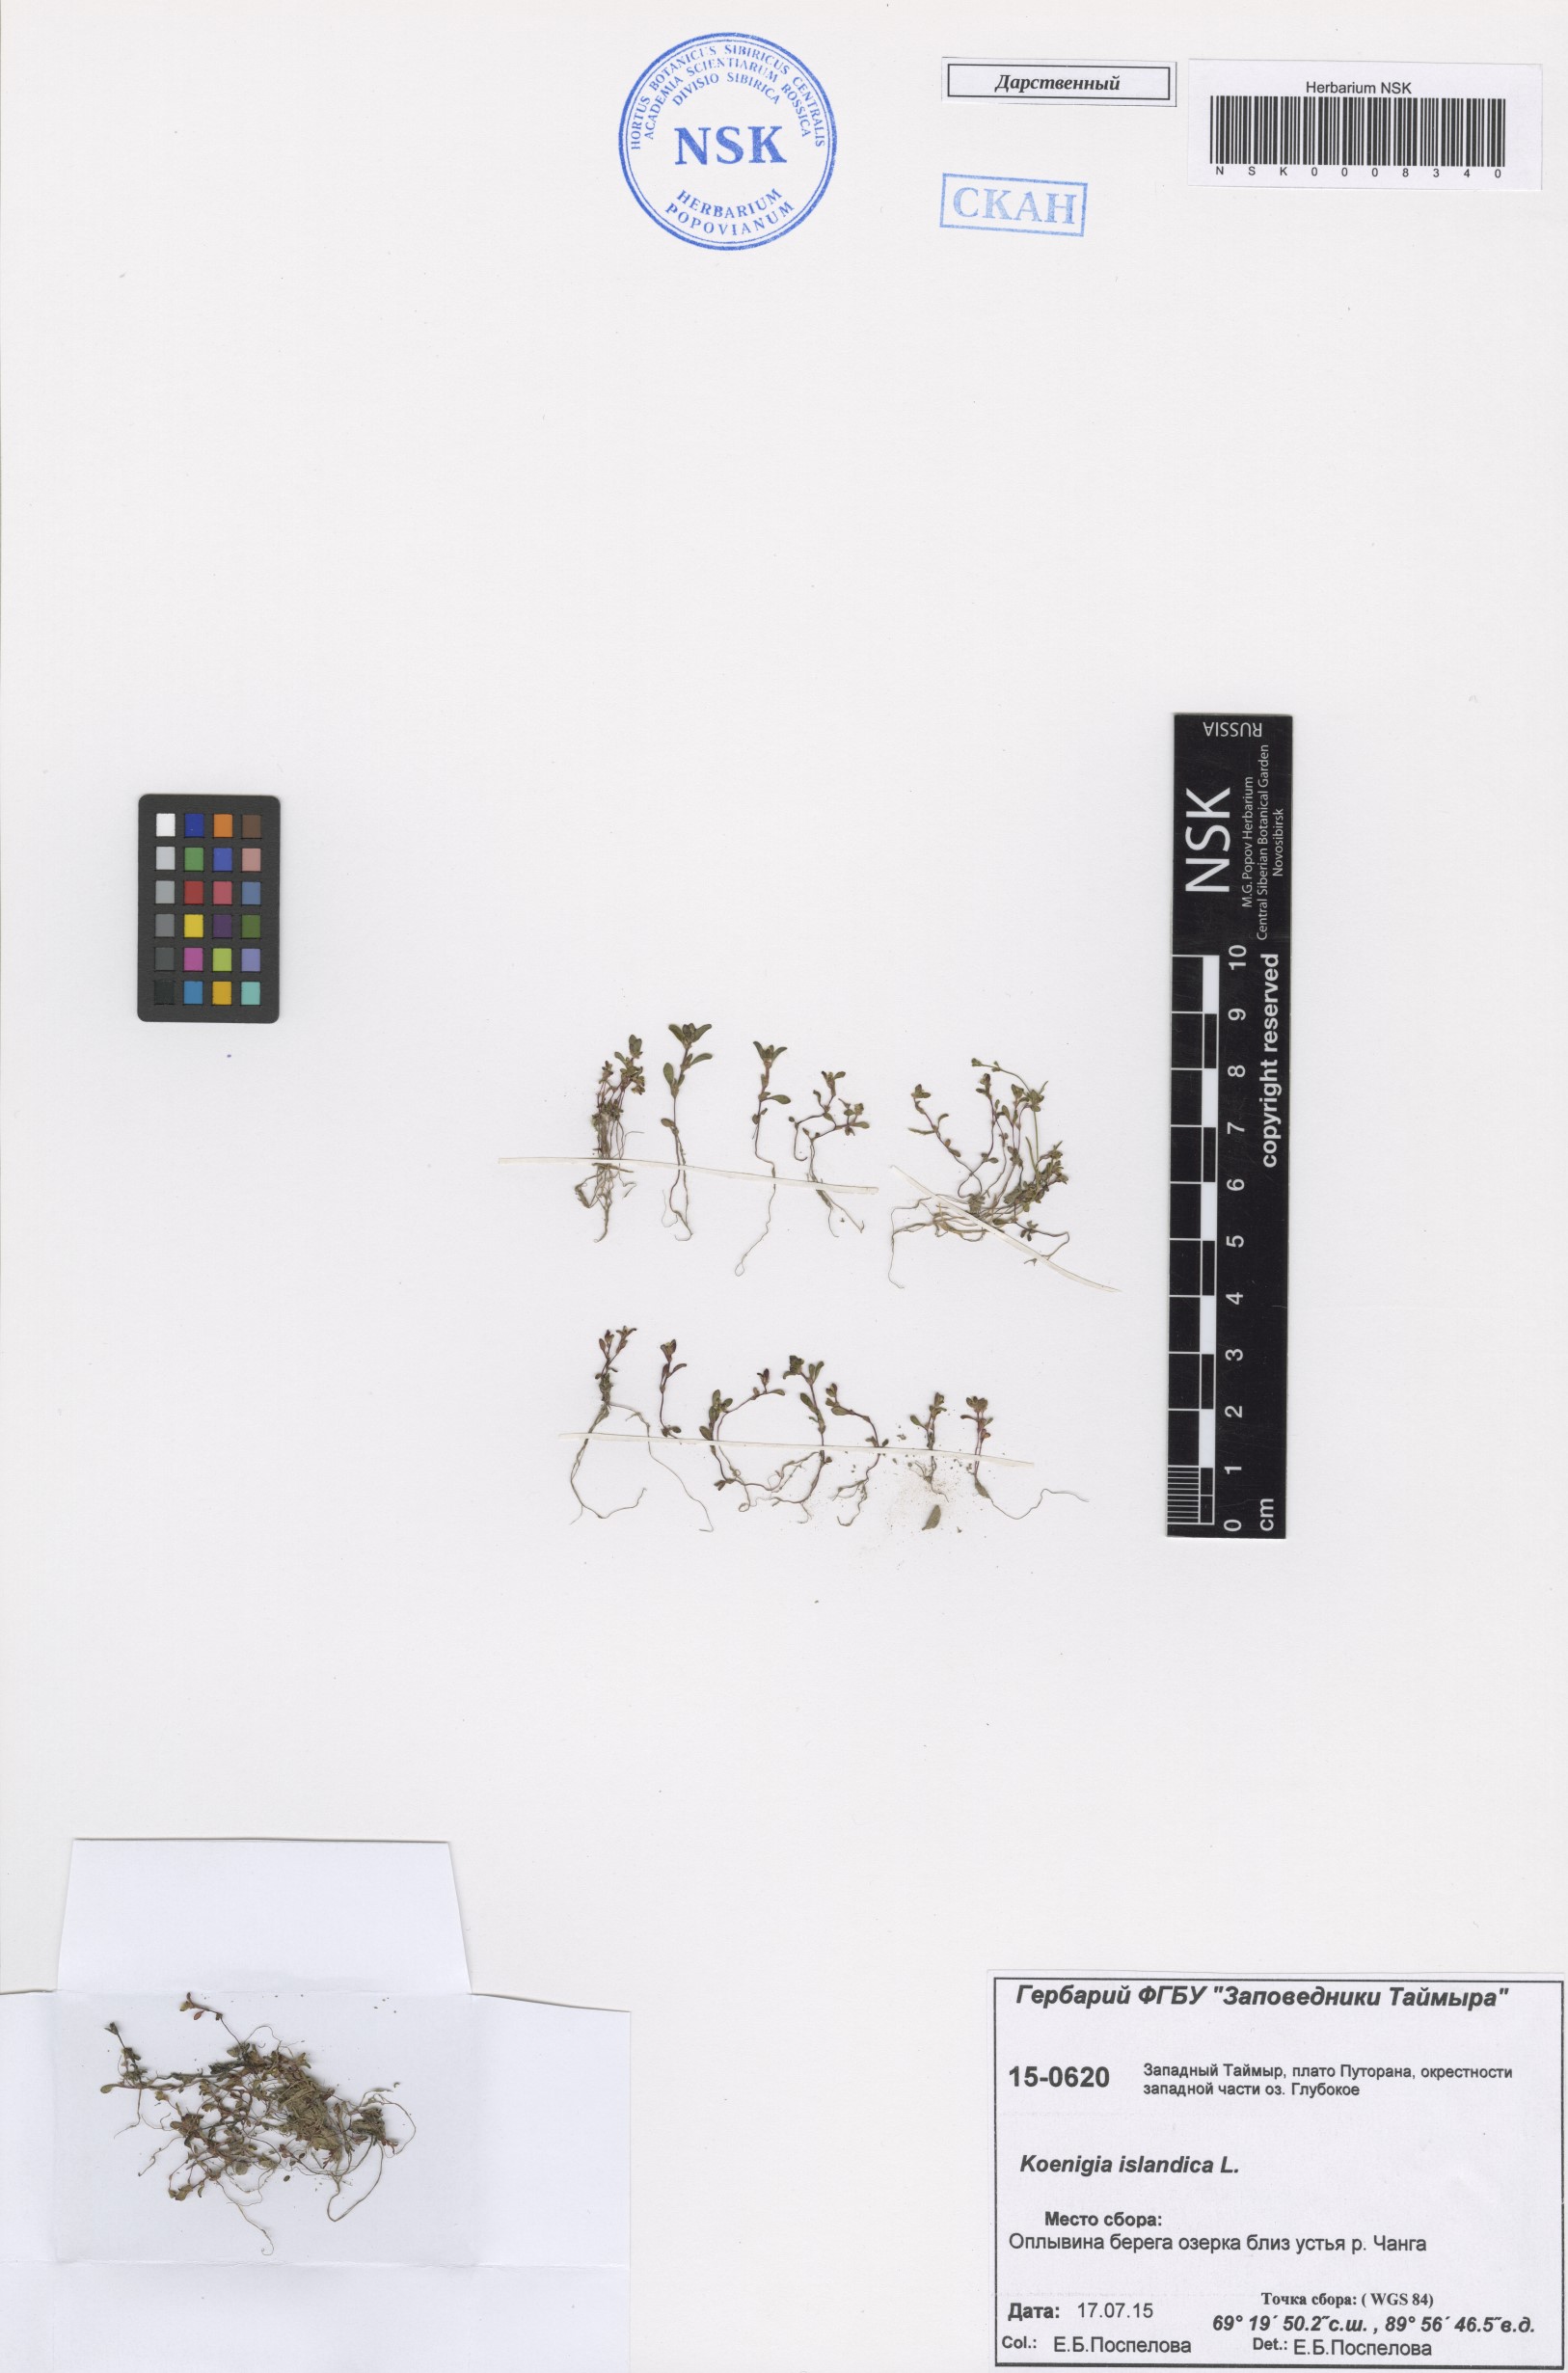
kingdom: Plantae
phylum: Tracheophyta
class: Magnoliopsida
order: Caryophyllales
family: Polygonaceae
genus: Koenigia
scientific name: Koenigia islandica
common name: Iceland-purslane
